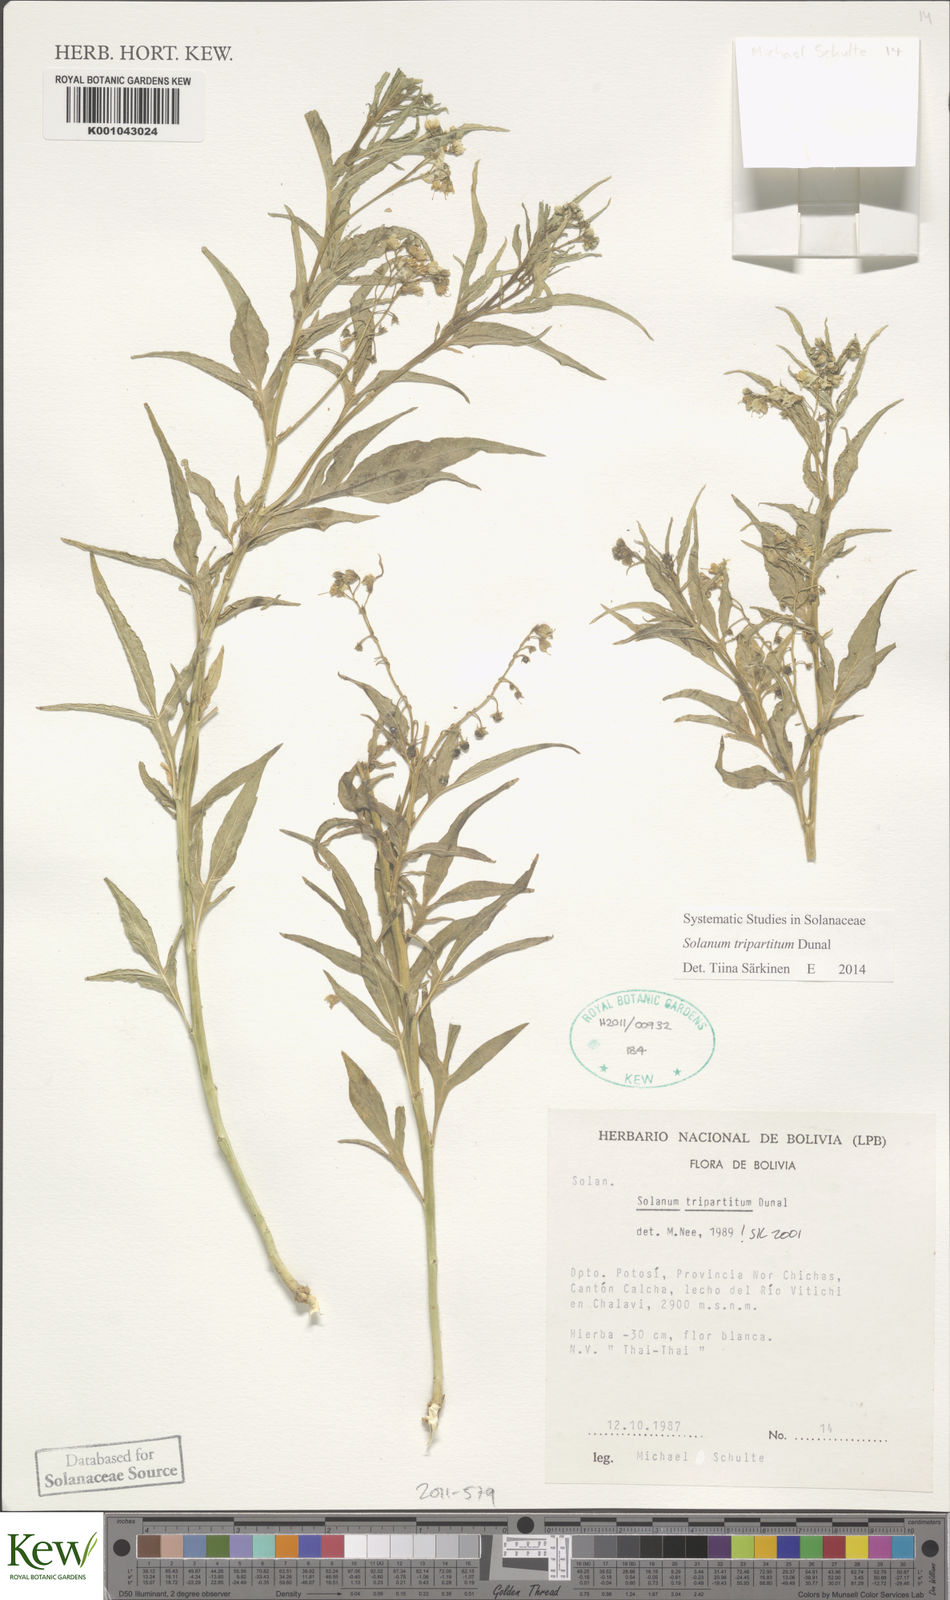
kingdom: Plantae
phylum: Tracheophyta
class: Magnoliopsida
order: Solanales
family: Solanaceae
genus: Solanum
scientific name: Solanum tripartitum
